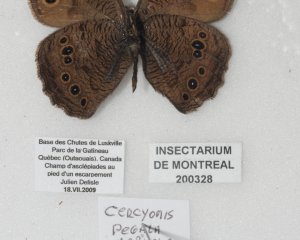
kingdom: Animalia
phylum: Arthropoda
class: Insecta
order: Lepidoptera
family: Nymphalidae
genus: Cercyonis
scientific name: Cercyonis pegala
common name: Common Wood-Nymph
